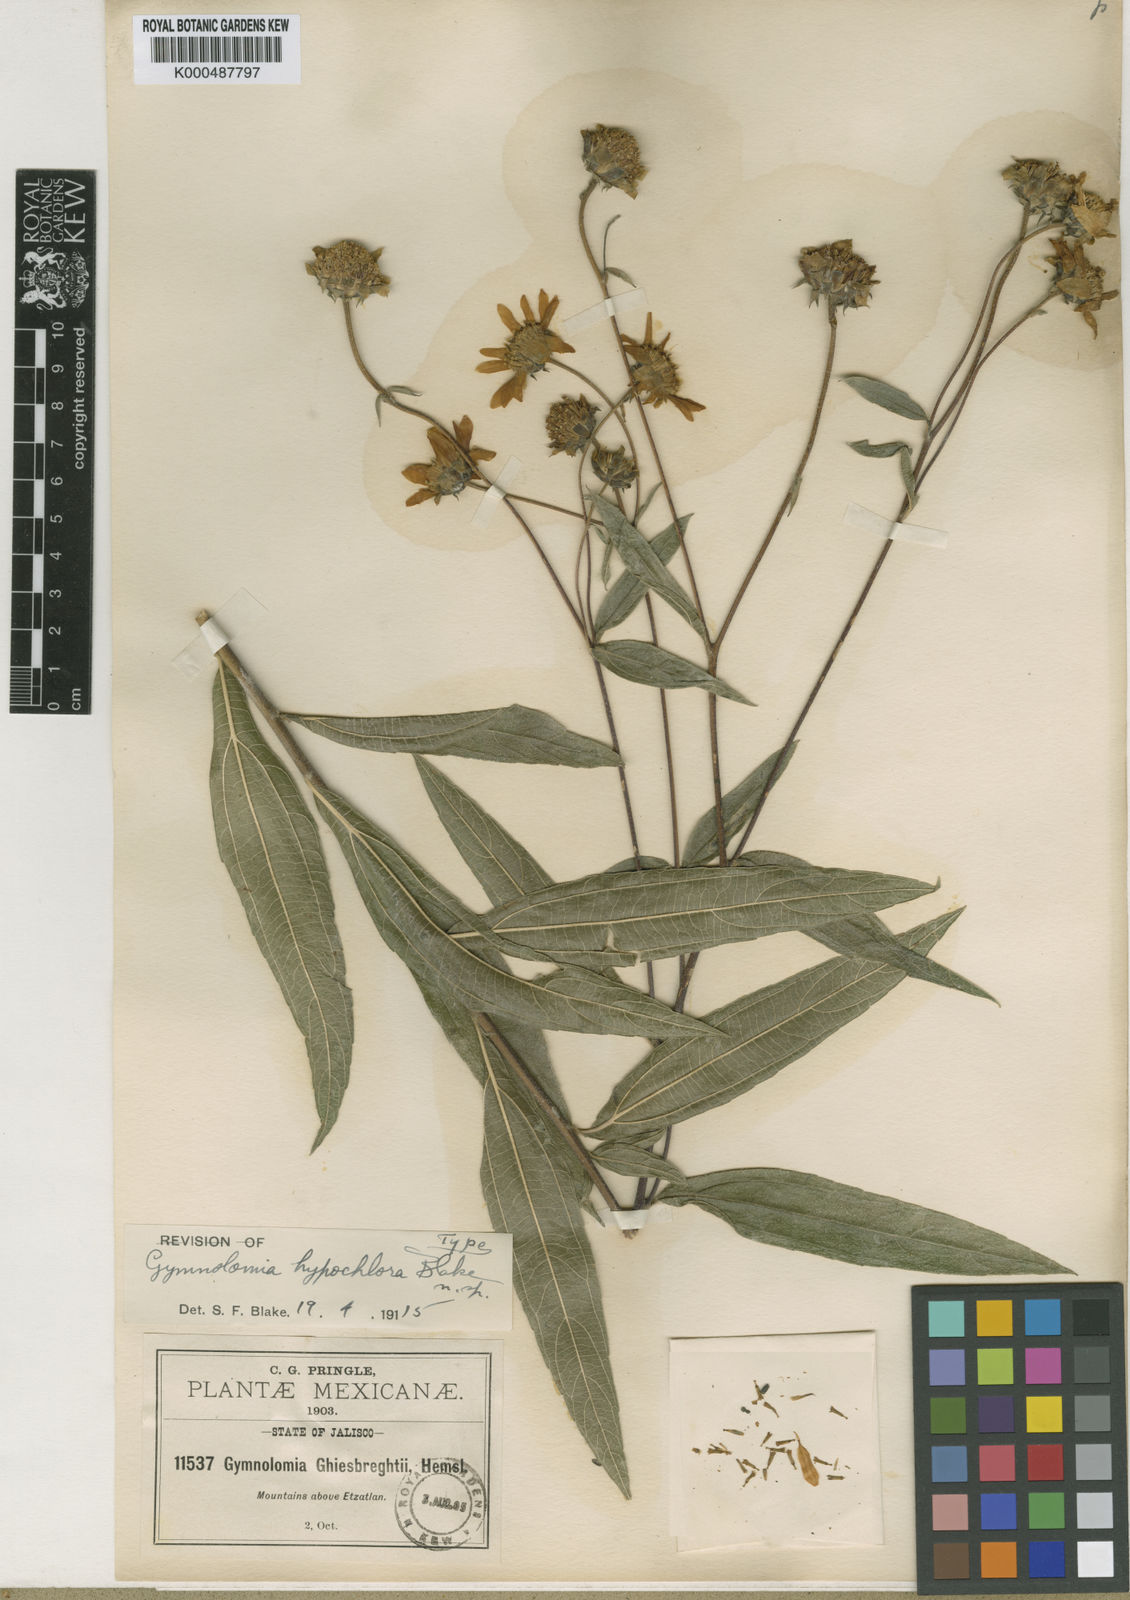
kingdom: Plantae
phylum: Tracheophyta
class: Magnoliopsida
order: Asterales
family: Asteraceae
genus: Aldama
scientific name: Aldama hypochlora
